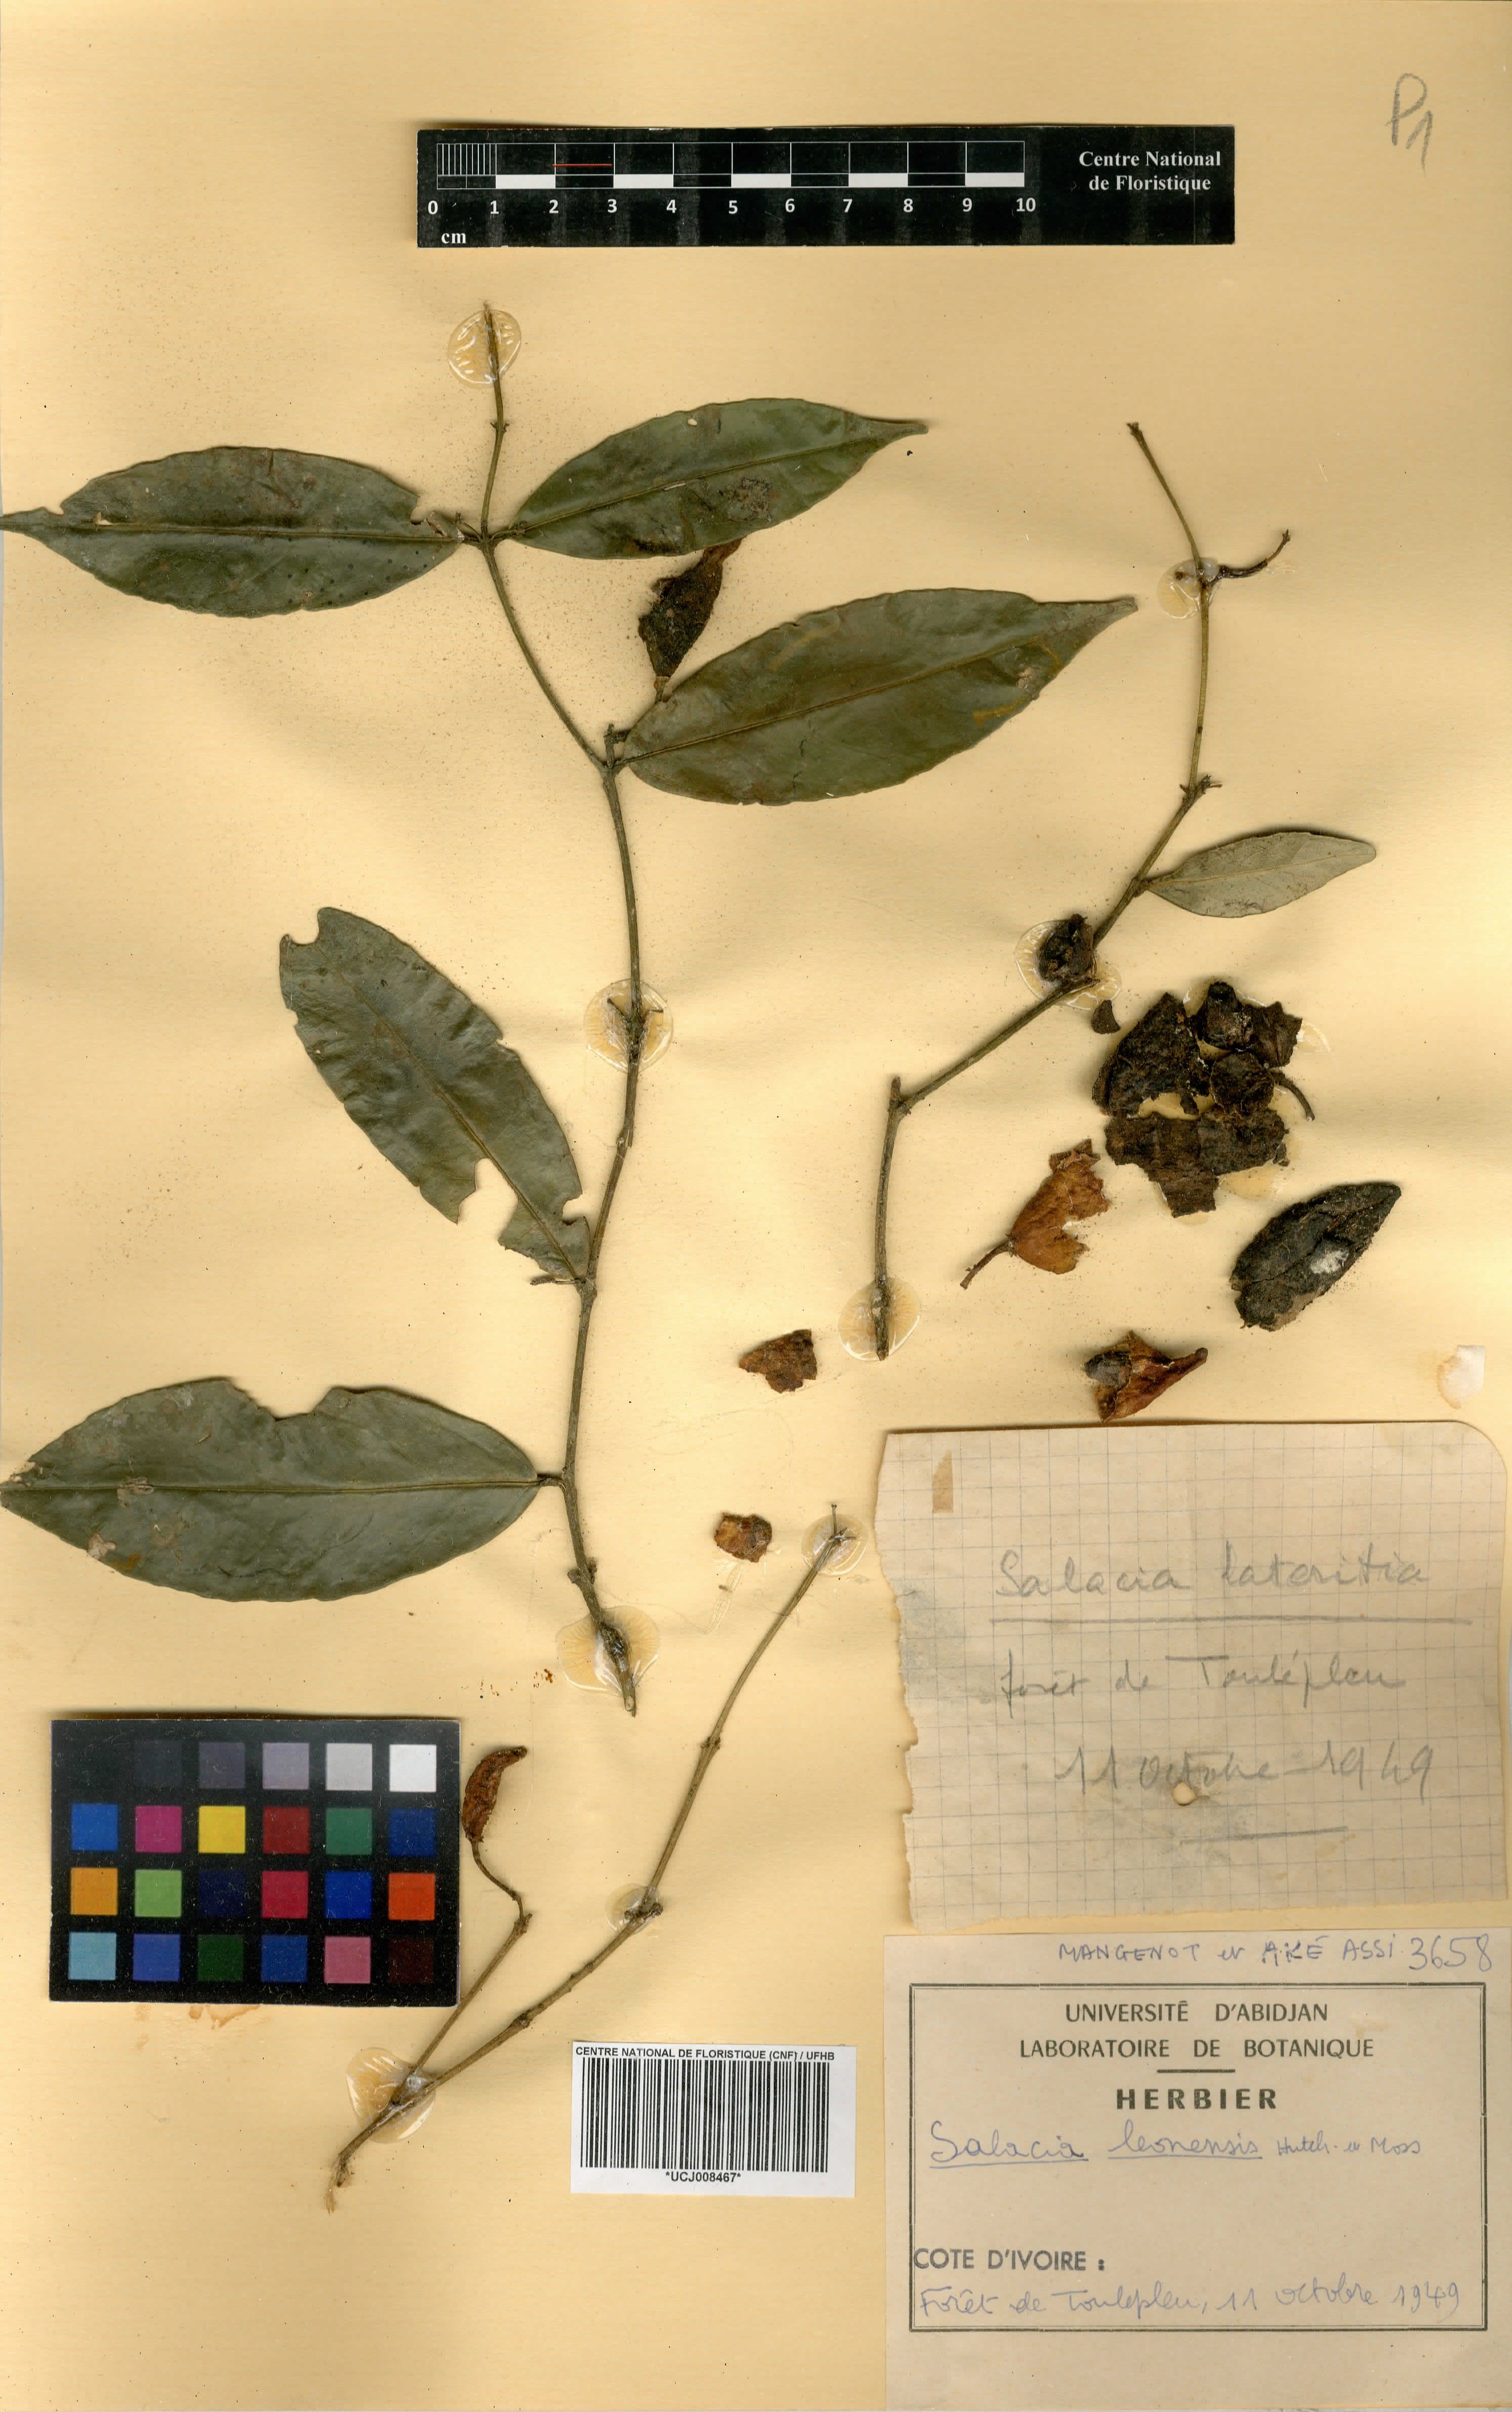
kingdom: Plantae
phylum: Tracheophyta
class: Magnoliopsida
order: Celastrales
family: Celastraceae
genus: Salacia
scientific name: Salacia lehmbachii
